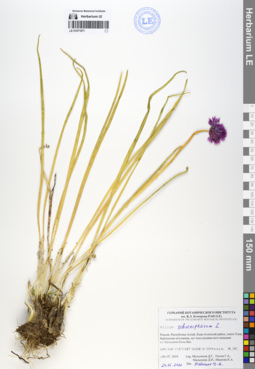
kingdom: Plantae
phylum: Tracheophyta
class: Liliopsida
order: Asparagales
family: Amaryllidaceae
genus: Allium
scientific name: Allium schoenoprasum
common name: Chives
